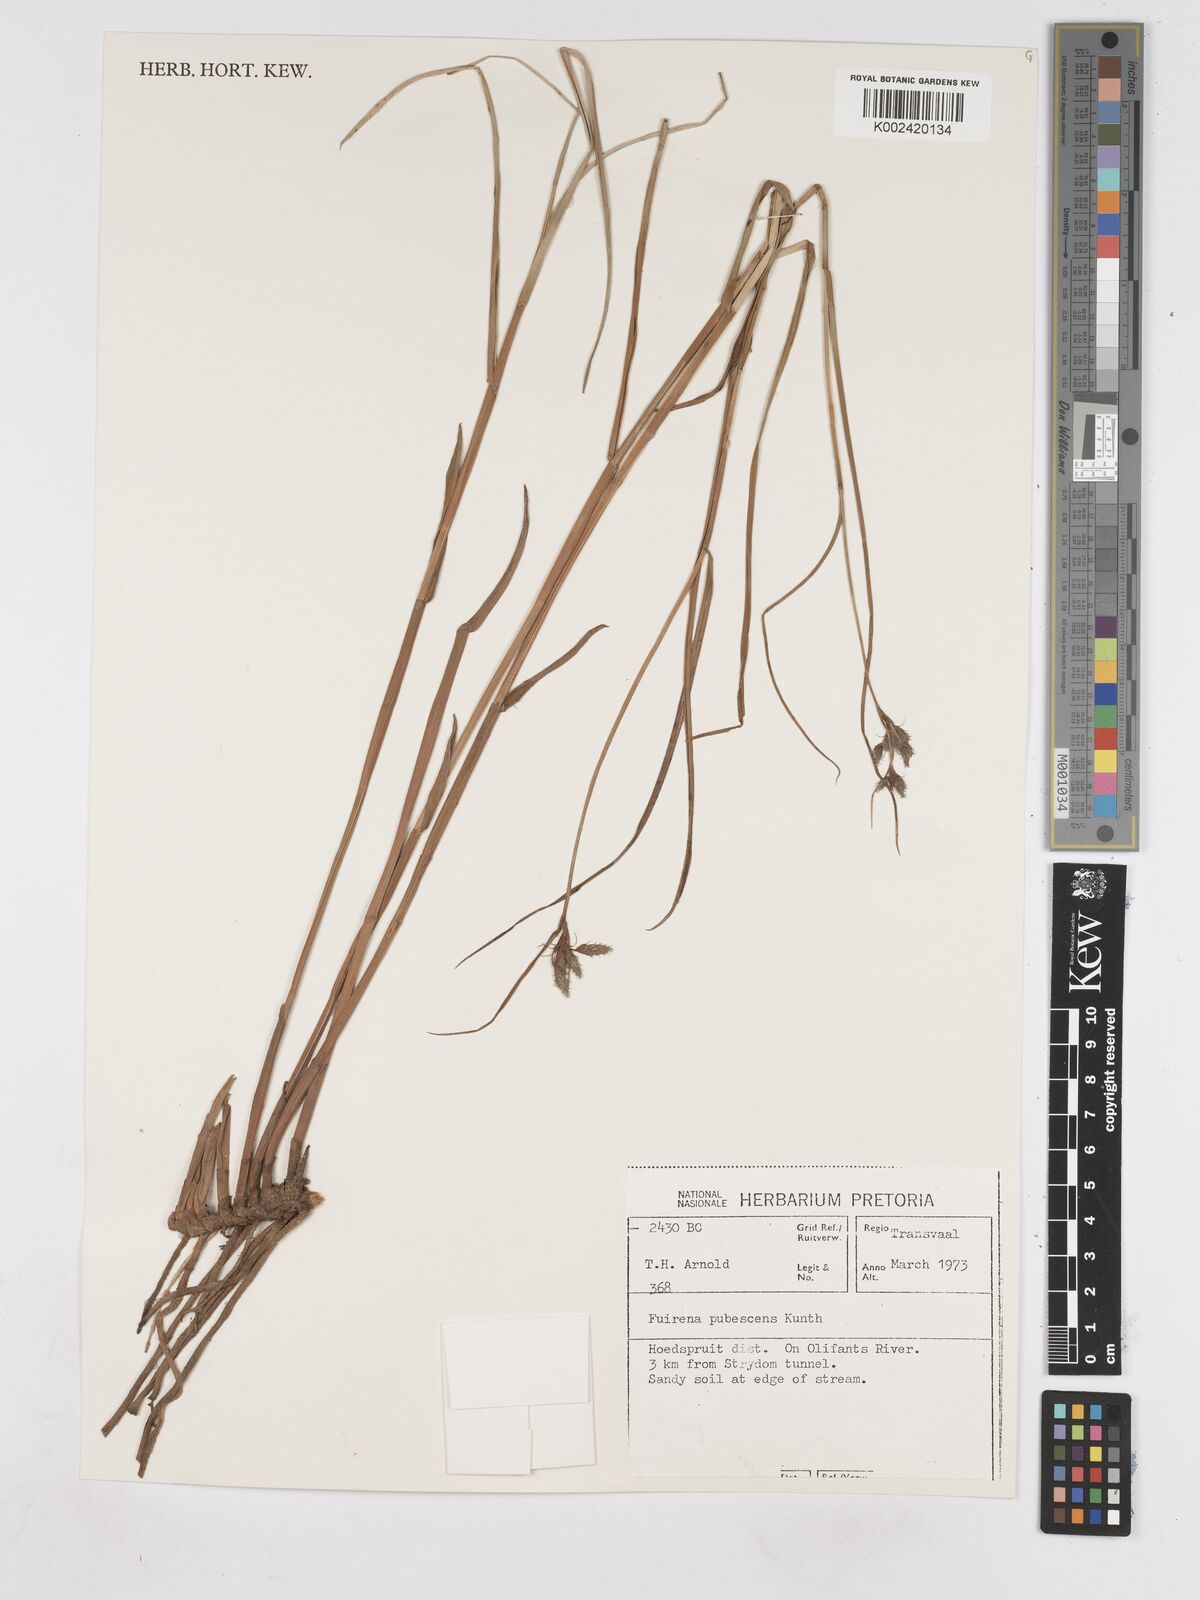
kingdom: Plantae
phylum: Tracheophyta
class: Liliopsida
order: Poales
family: Cyperaceae
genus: Fuirena
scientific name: Fuirena pubescens
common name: Hairy sedge
